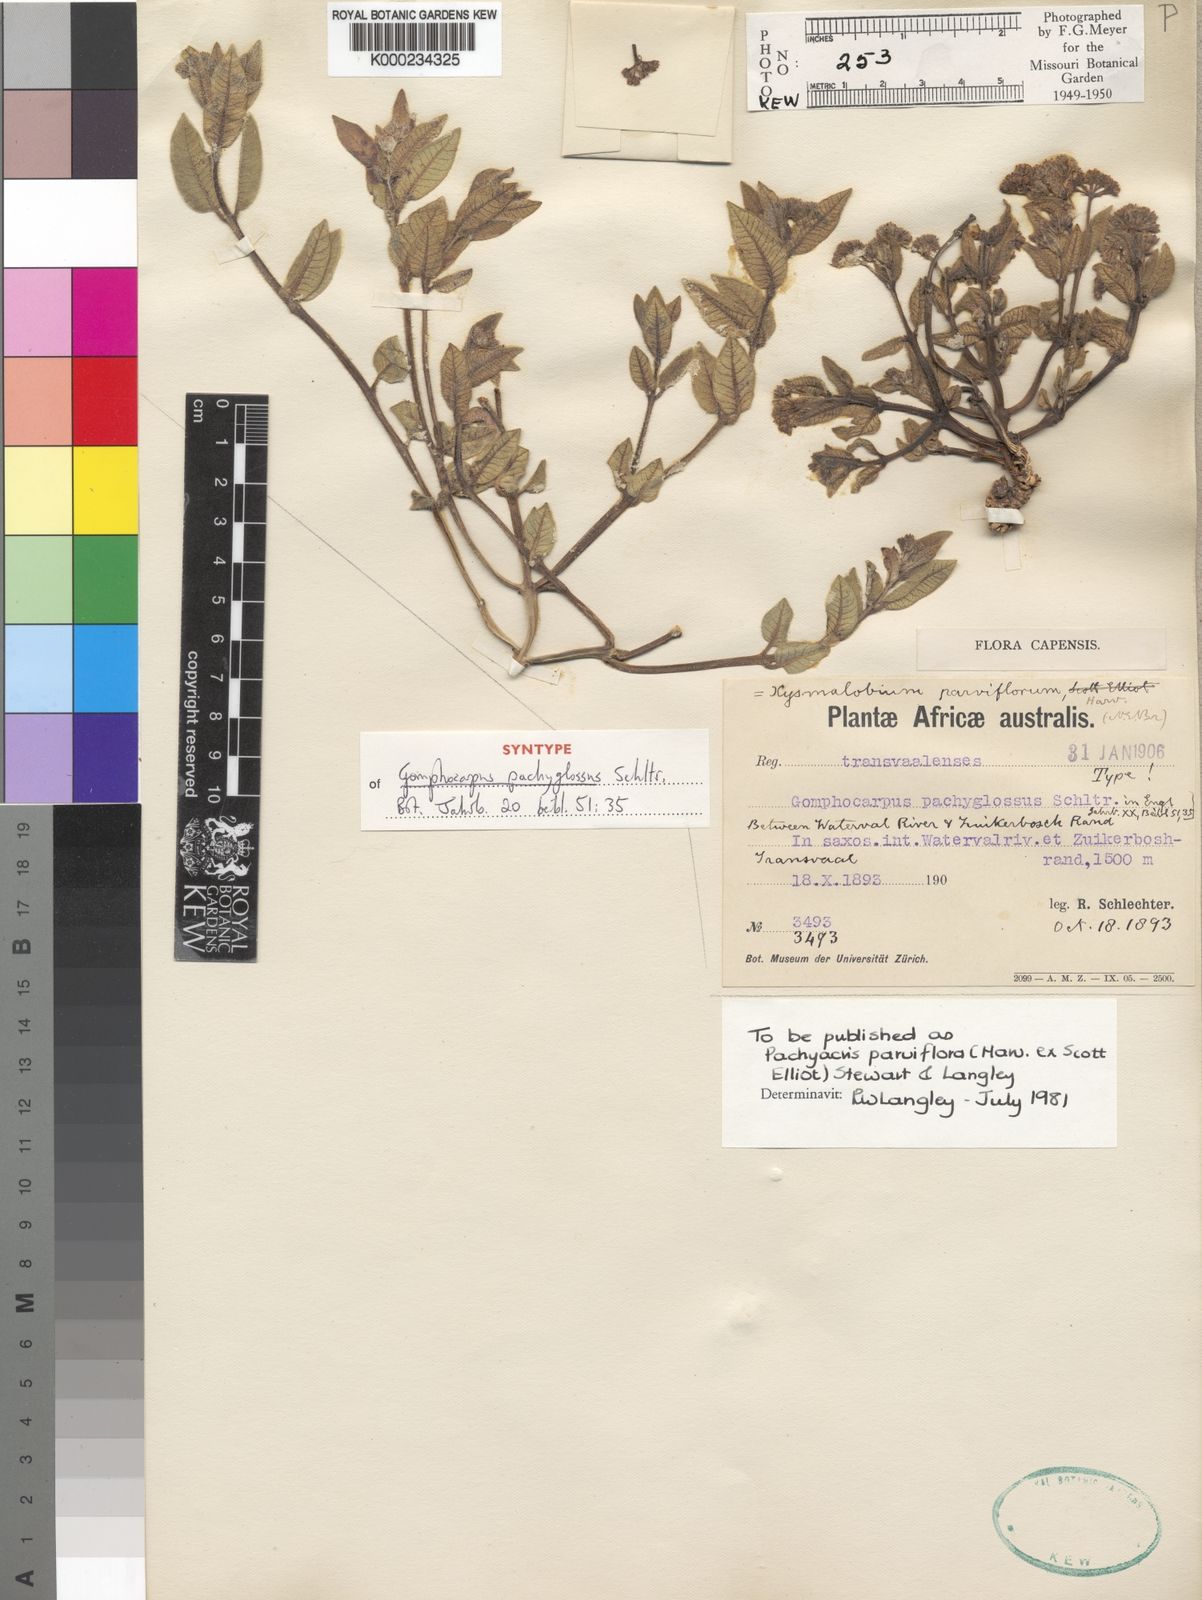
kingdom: Plantae
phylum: Tracheophyta
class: Magnoliopsida
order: Gentianales
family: Apocynaceae
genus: Xysmalobium
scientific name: Xysmalobium parviflorum
